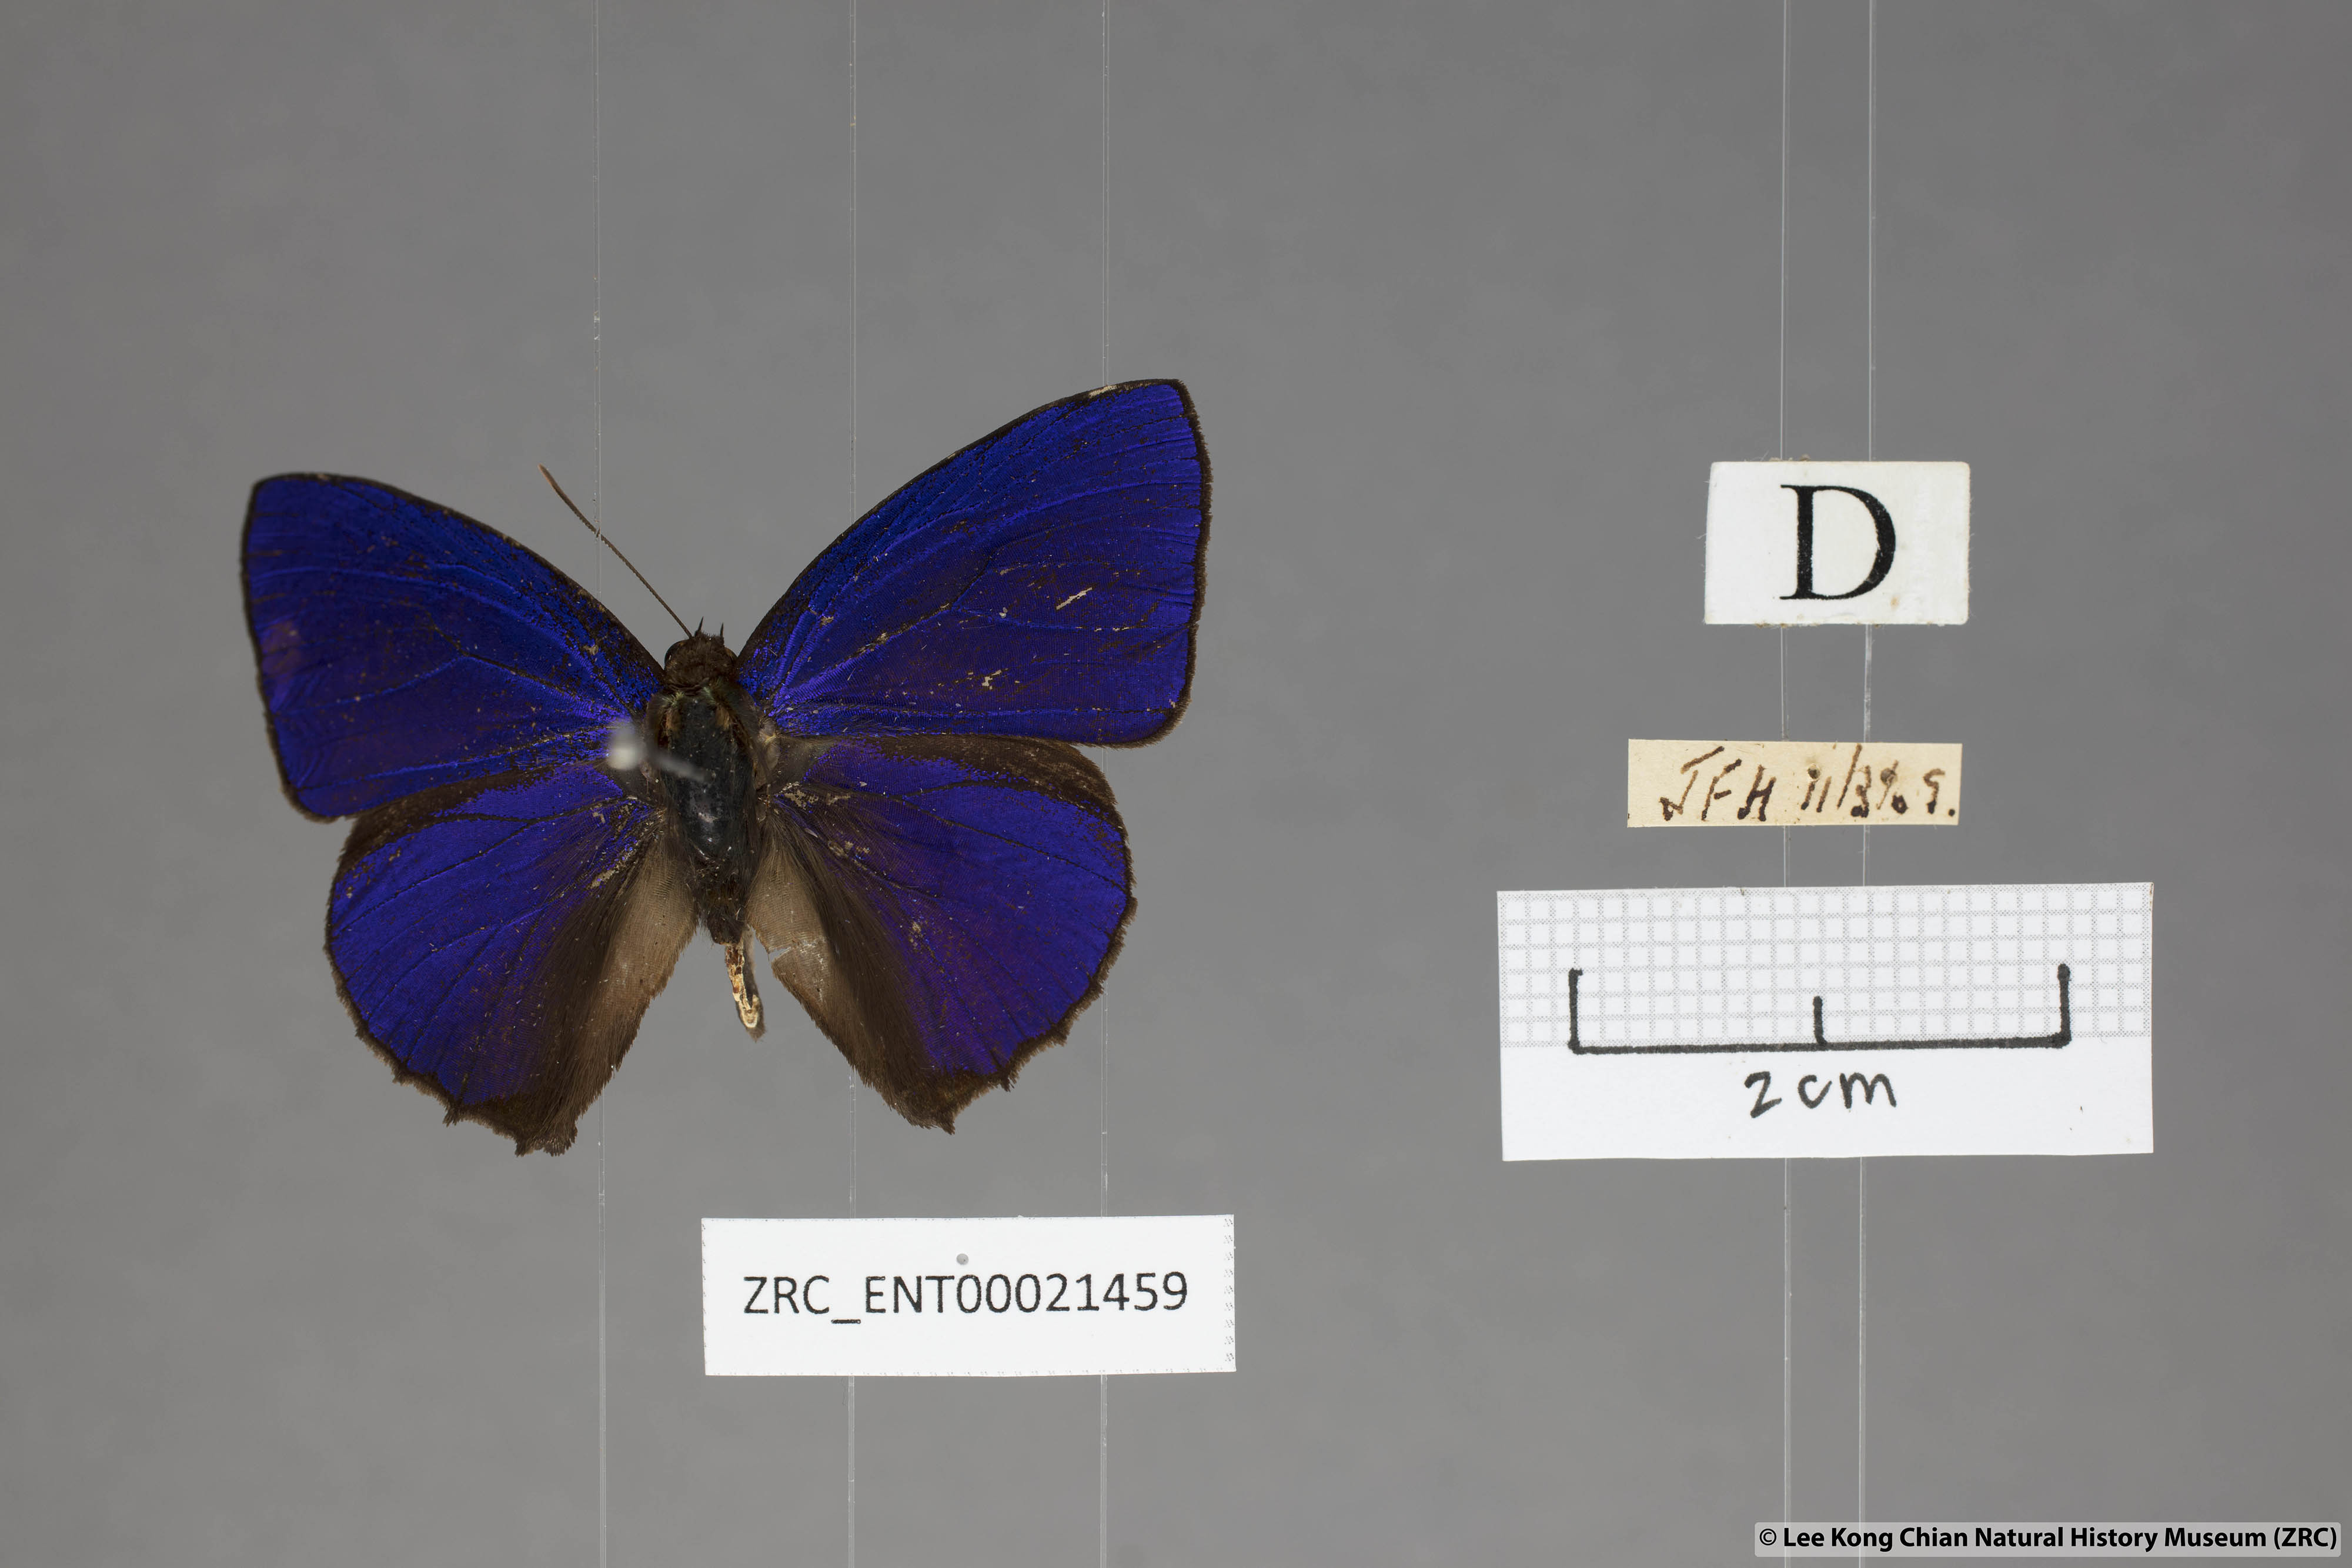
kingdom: Animalia
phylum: Arthropoda
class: Insecta
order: Lepidoptera
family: Lycaenidae
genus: Flos
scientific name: Flos
